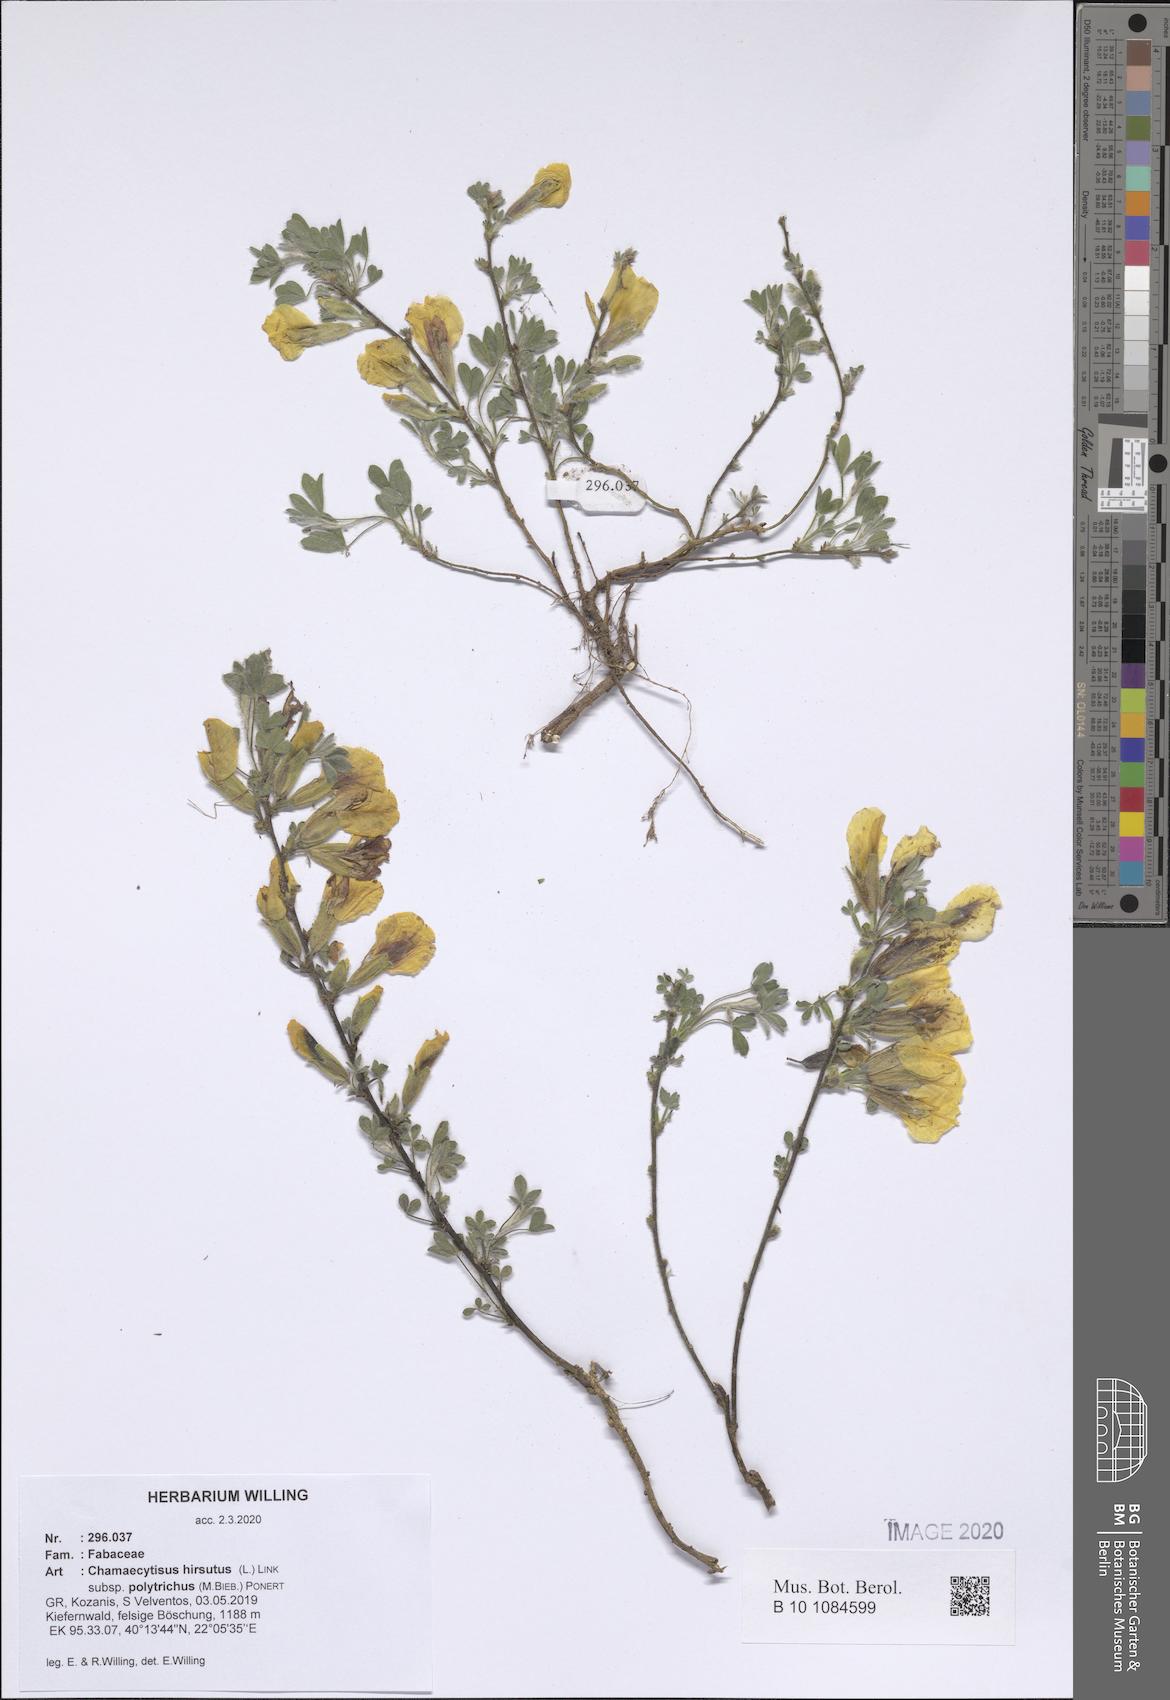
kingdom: Plantae
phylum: Tracheophyta
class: Magnoliopsida
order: Fabales
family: Fabaceae
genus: Chamaecytisus
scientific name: Chamaecytisus hirsutus
